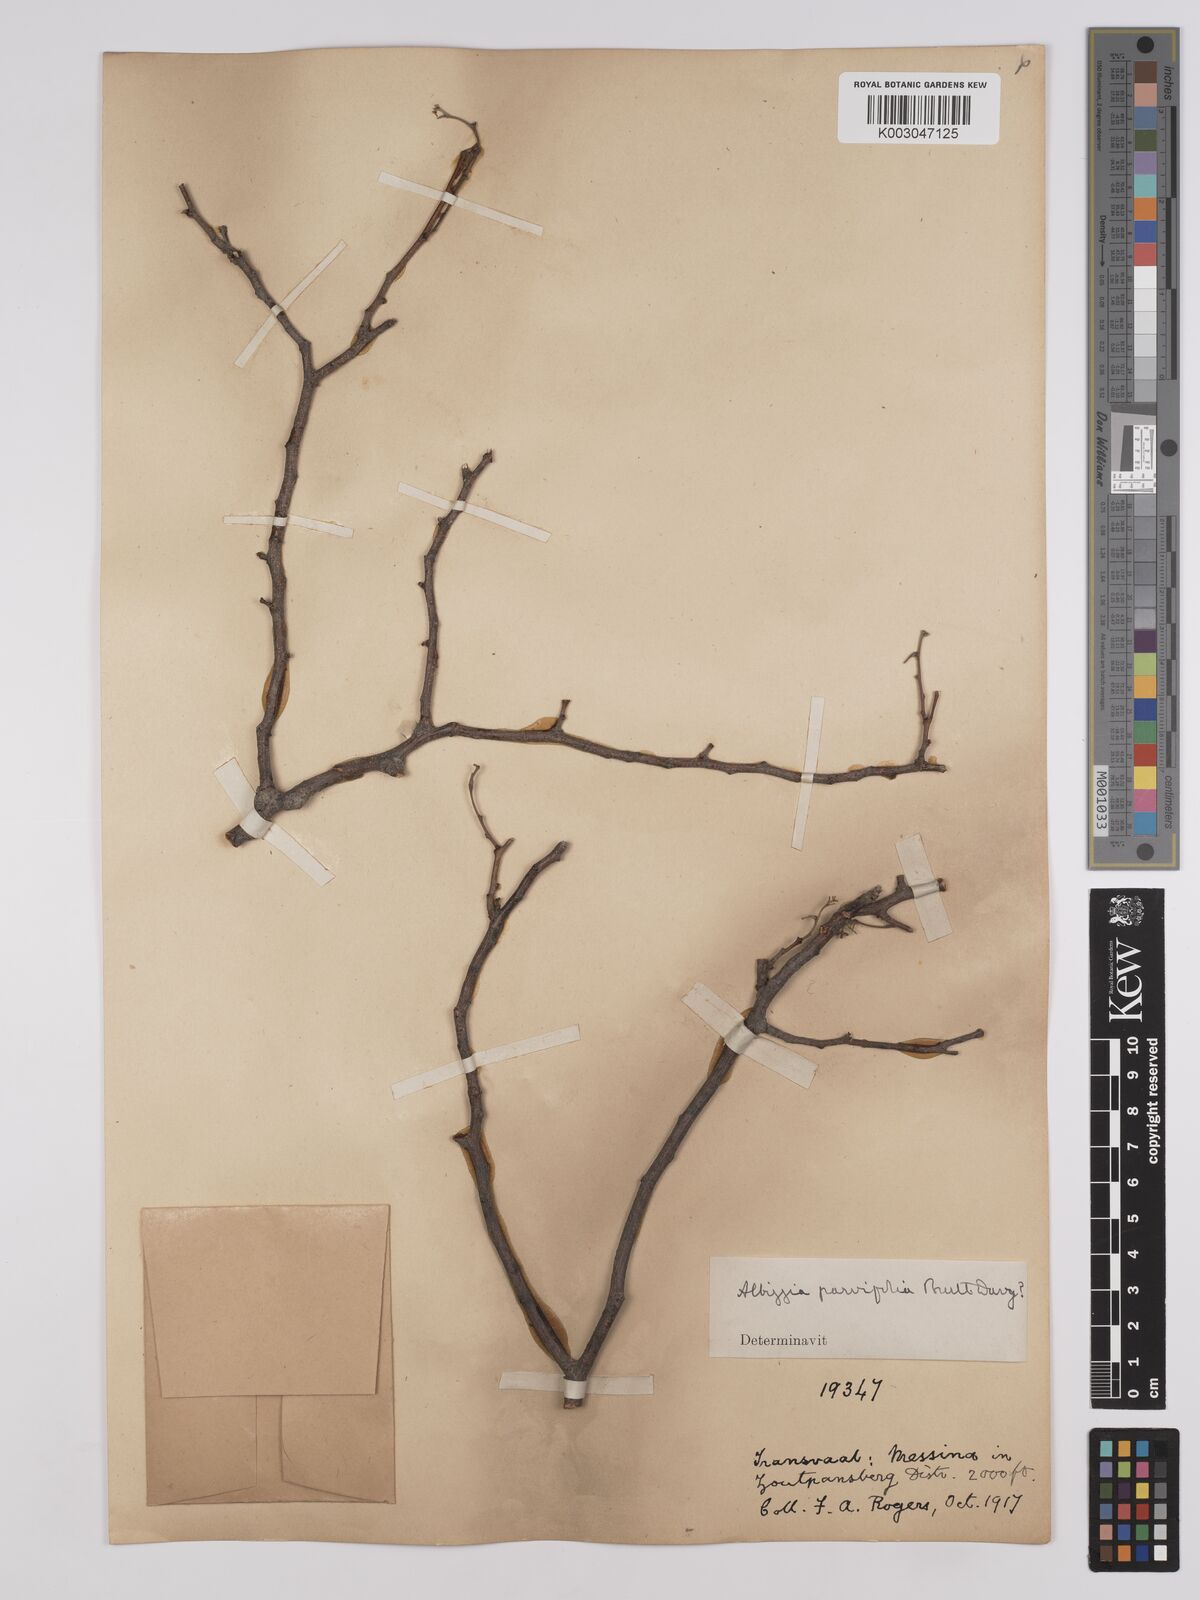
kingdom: Plantae
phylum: Tracheophyta
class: Magnoliopsida
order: Fabales
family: Fabaceae
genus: Albizia
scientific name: Albizia anthelmintica
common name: Worm-bark false-thorn
